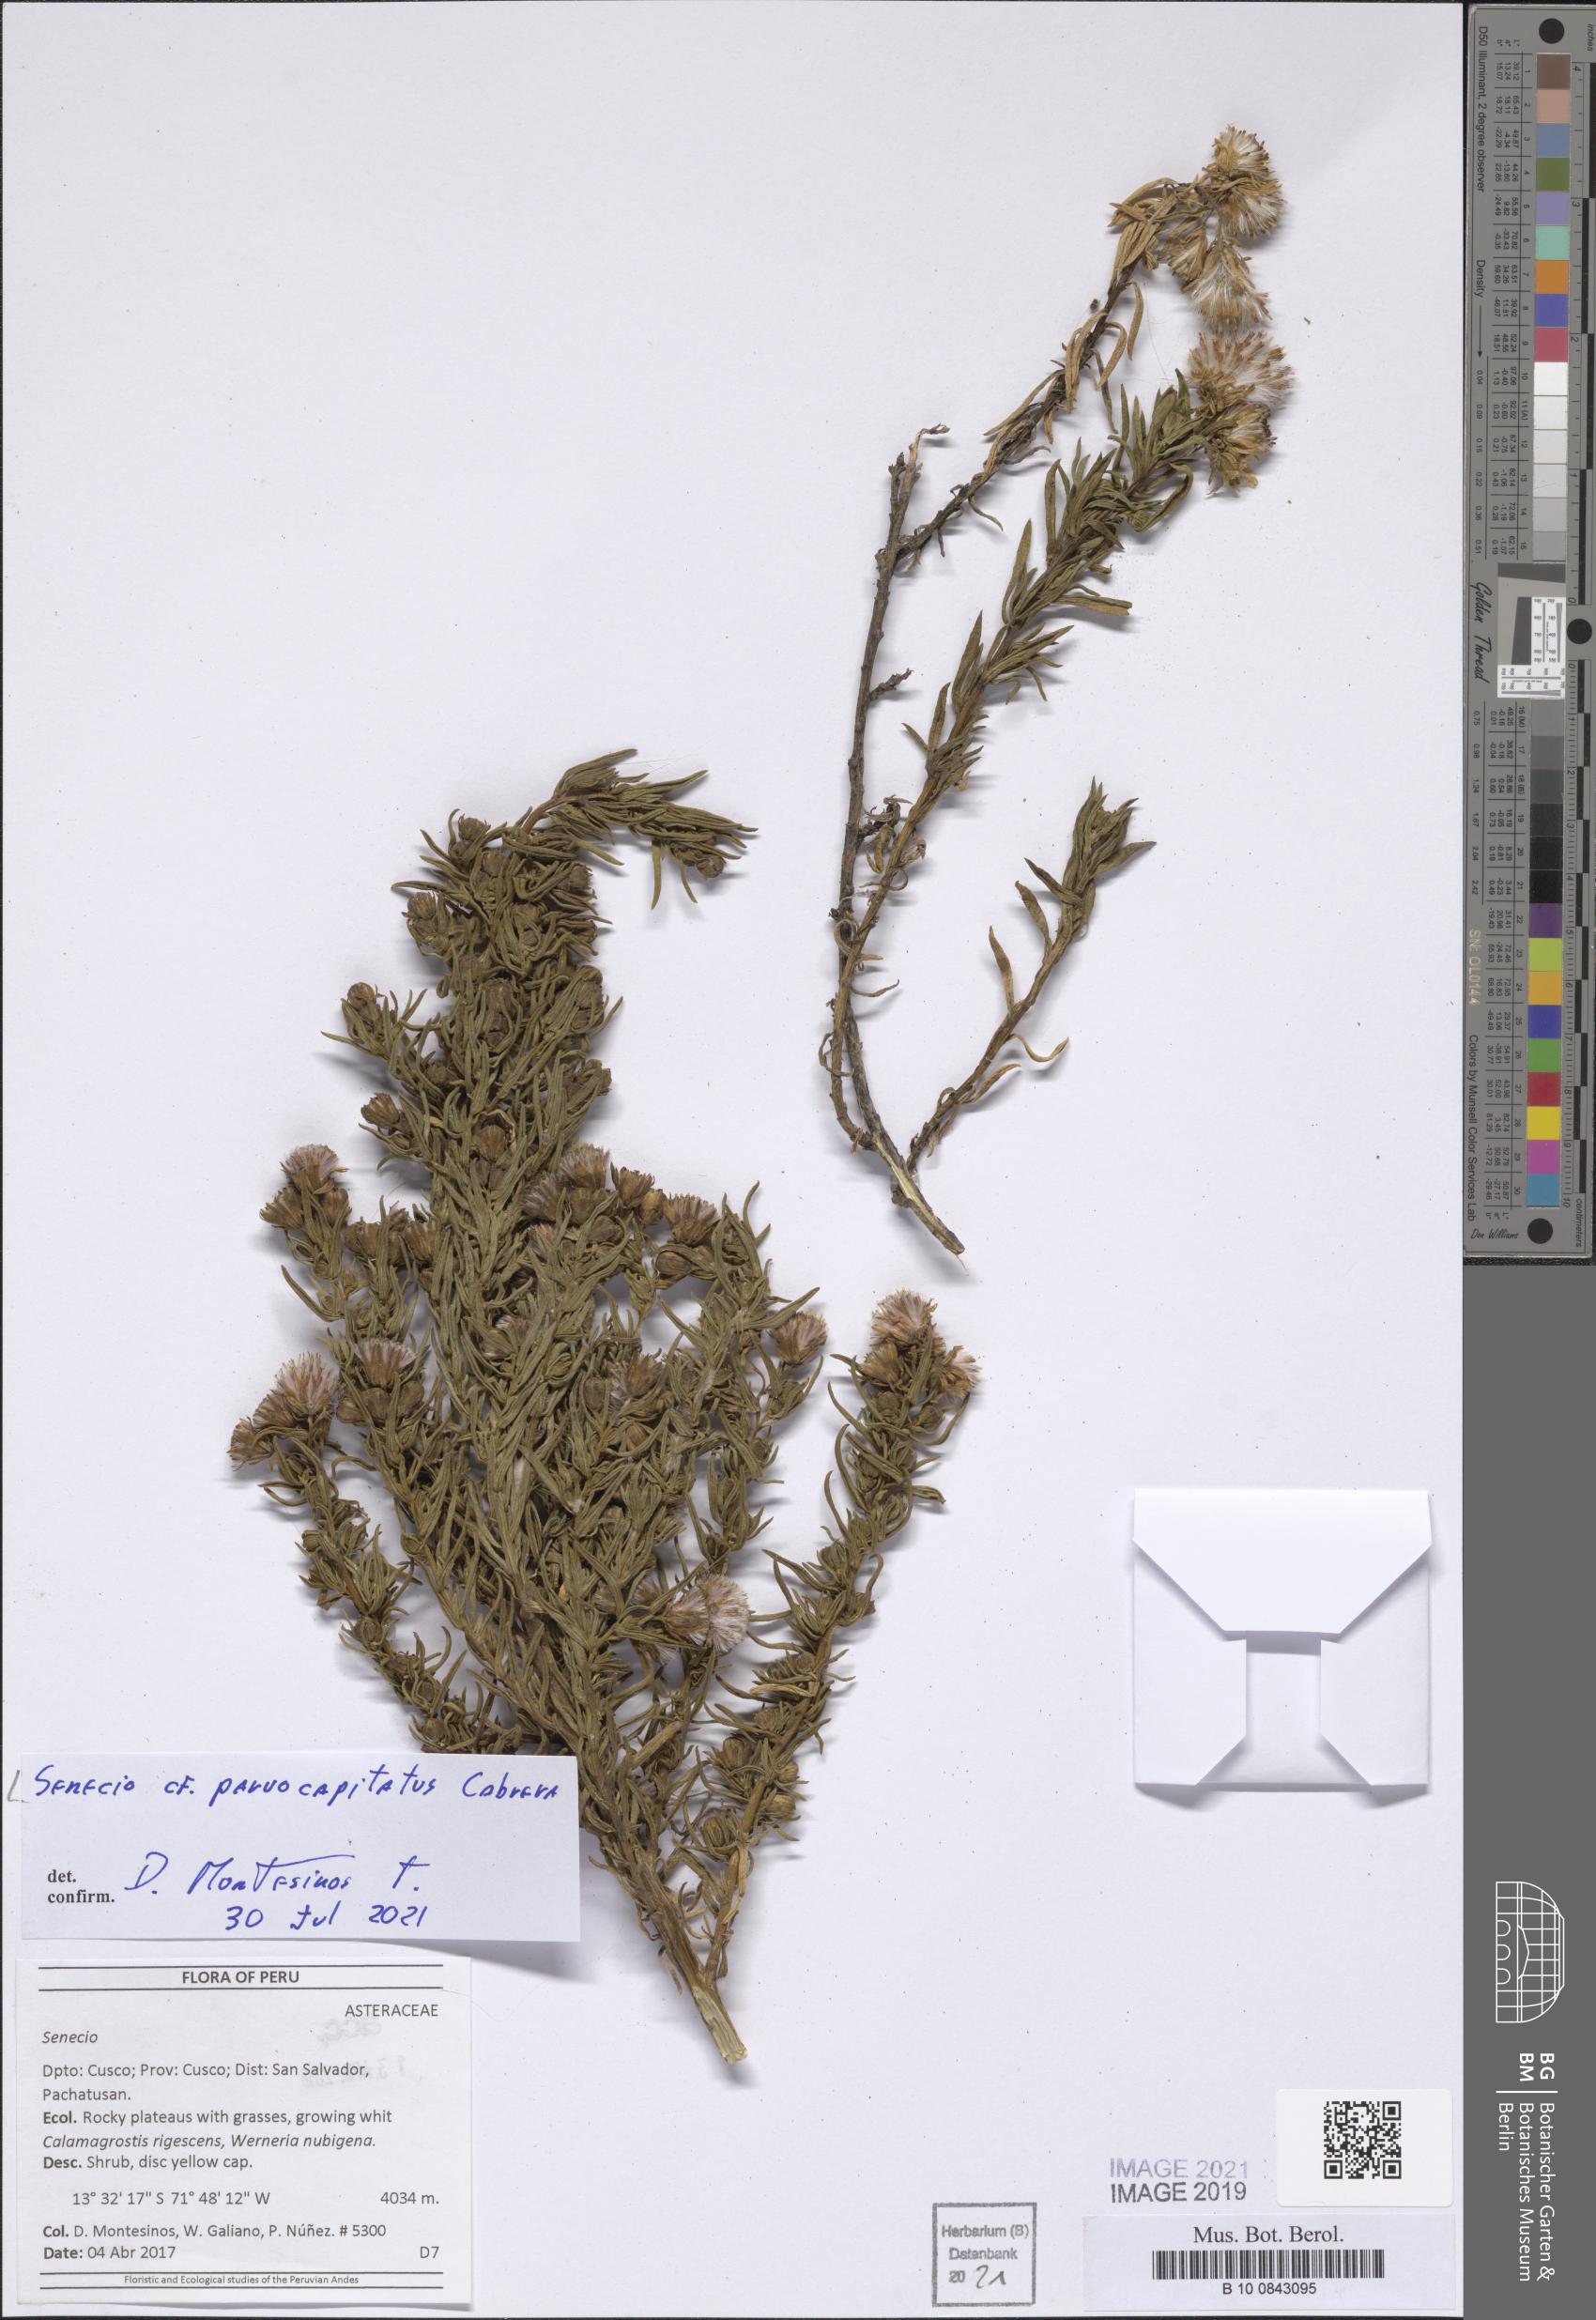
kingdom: Plantae
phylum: Tracheophyta
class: Magnoliopsida
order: Asterales
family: Asteraceae
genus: Senecio
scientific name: Senecio parvocapitatus
